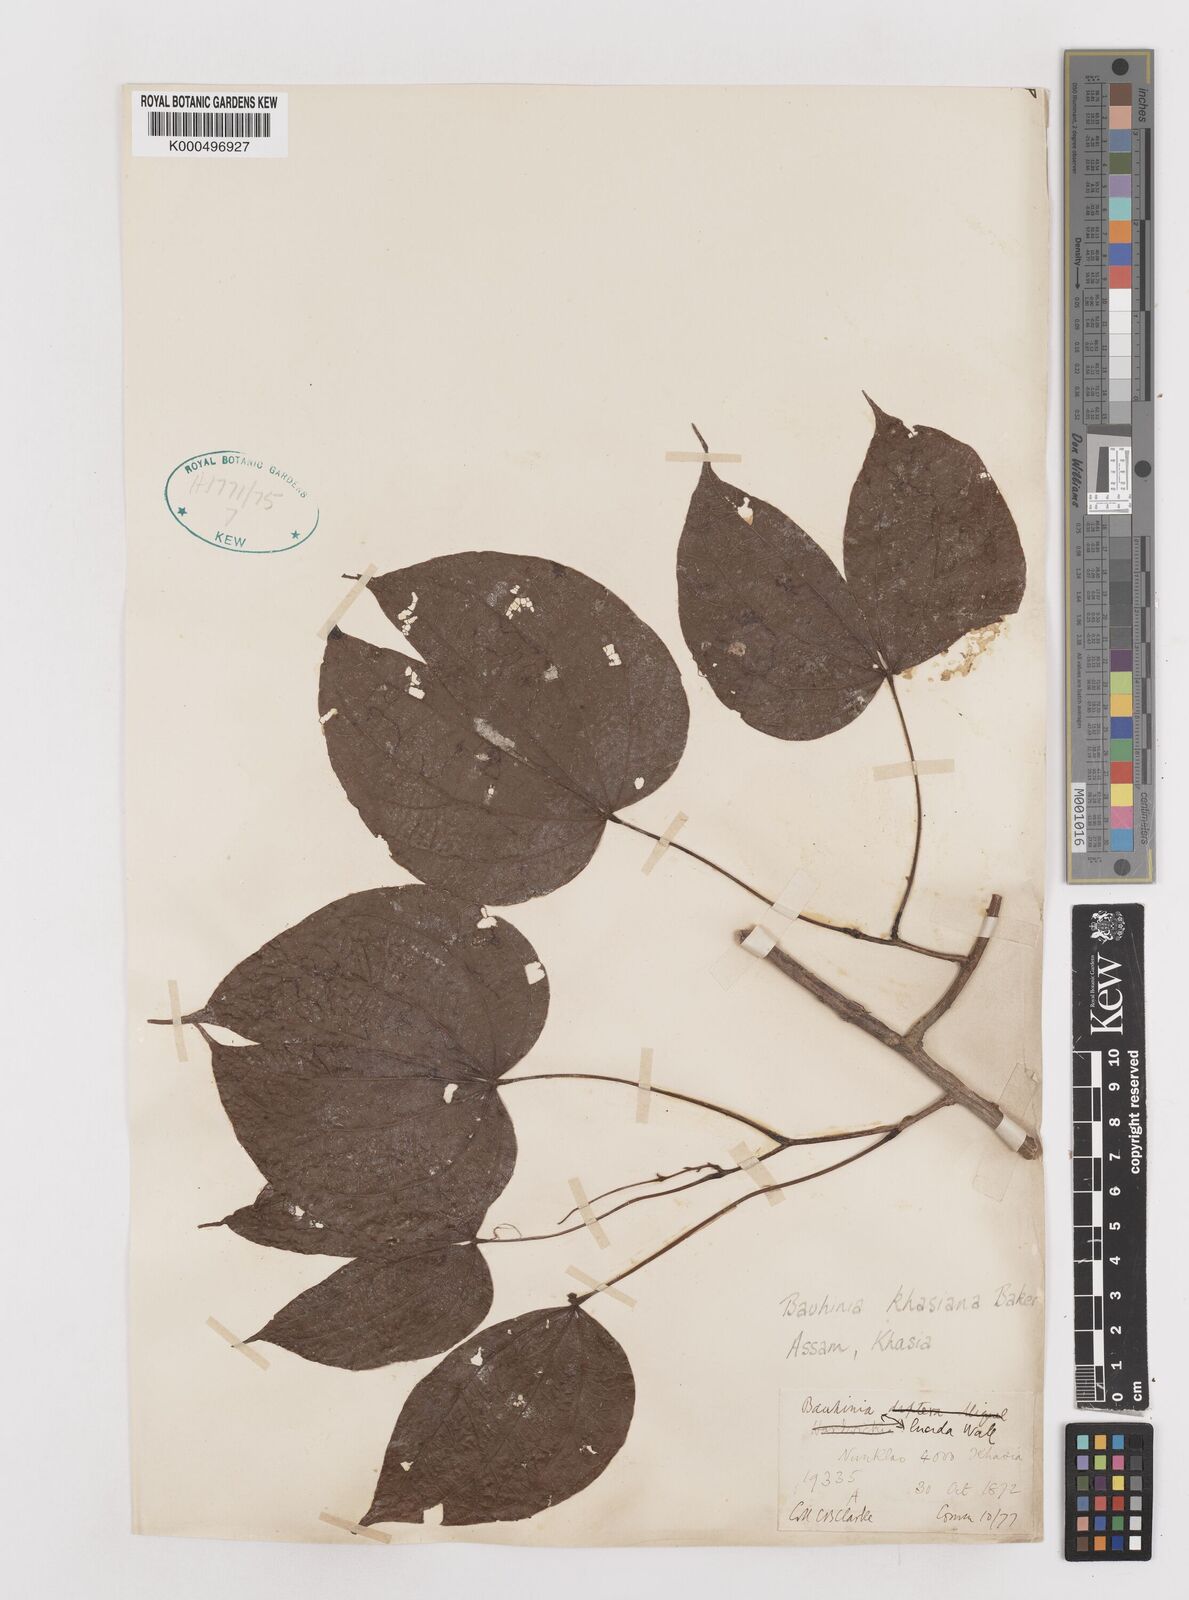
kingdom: Plantae
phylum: Tracheophyta
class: Magnoliopsida
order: Fabales
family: Fabaceae
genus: Phanera
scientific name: Phanera khasiana
